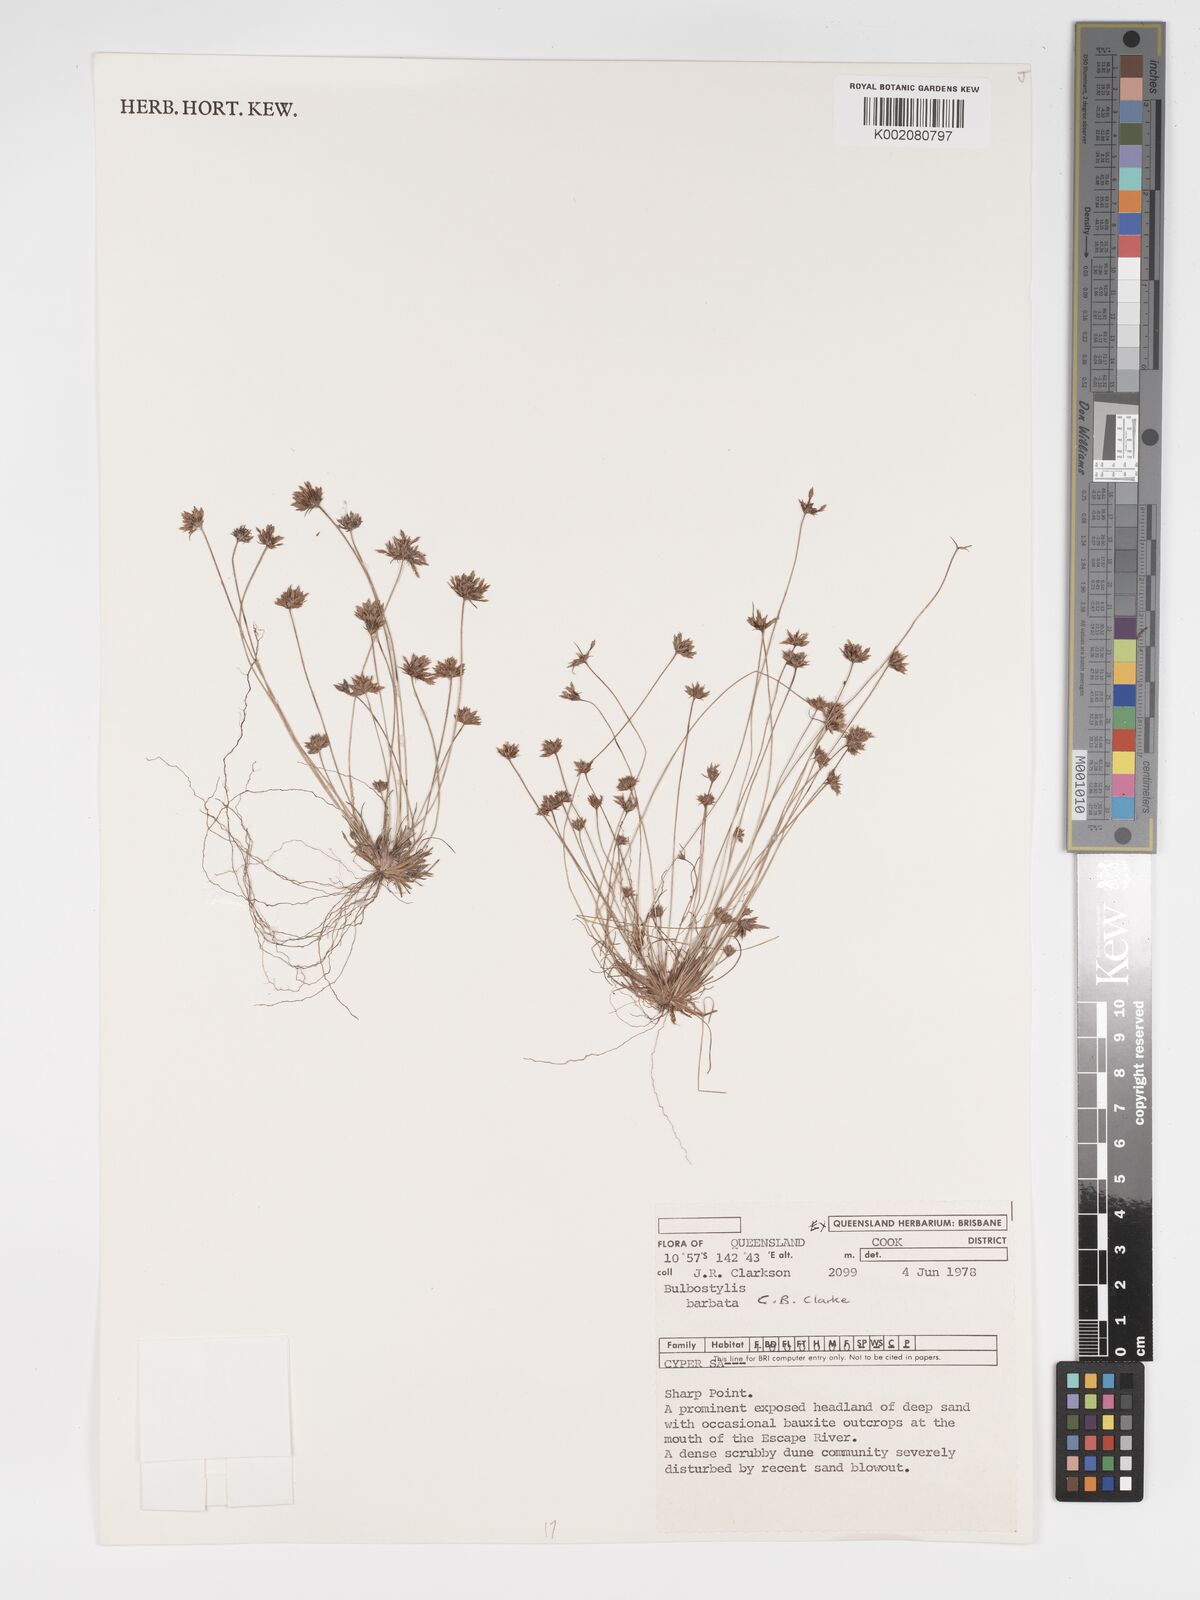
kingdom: Plantae
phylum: Tracheophyta
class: Liliopsida
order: Poales
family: Cyperaceae
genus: Bulbostylis
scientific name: Bulbostylis barbata
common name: Watergrass
